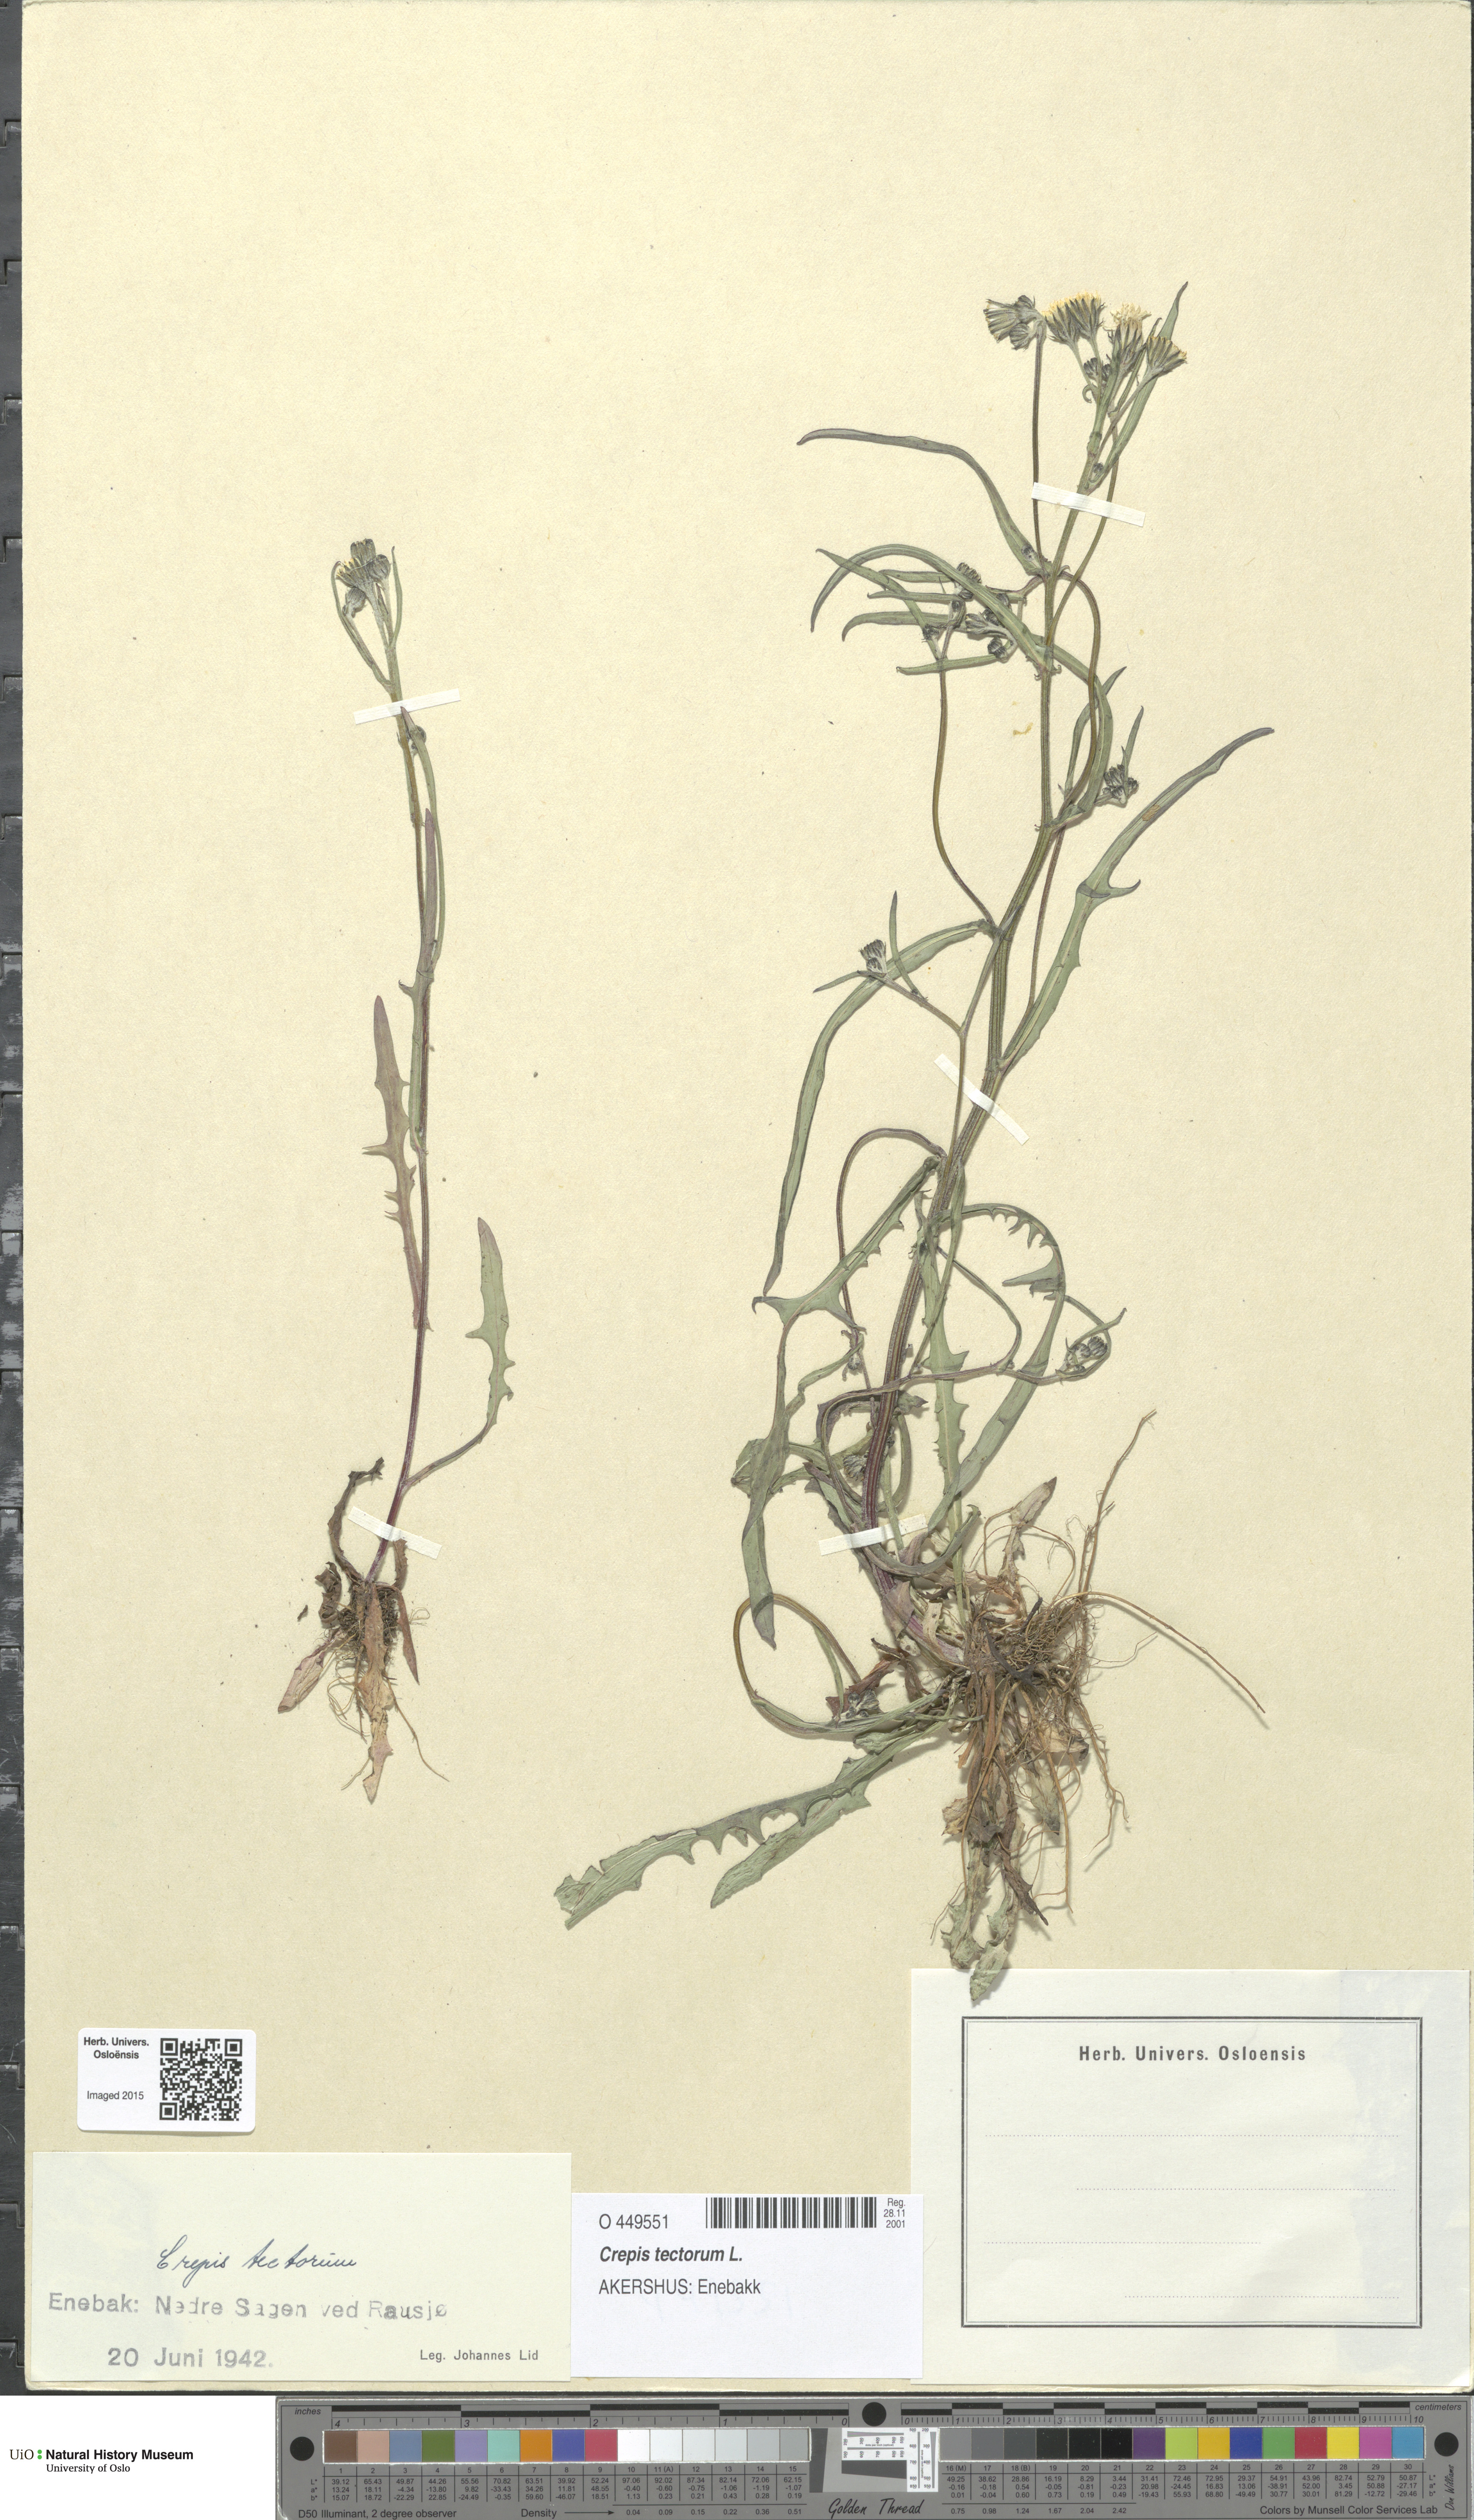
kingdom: Plantae
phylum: Tracheophyta
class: Magnoliopsida
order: Asterales
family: Asteraceae
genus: Crepis
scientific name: Crepis tectorum
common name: Narrow-leaved hawk's-beard
